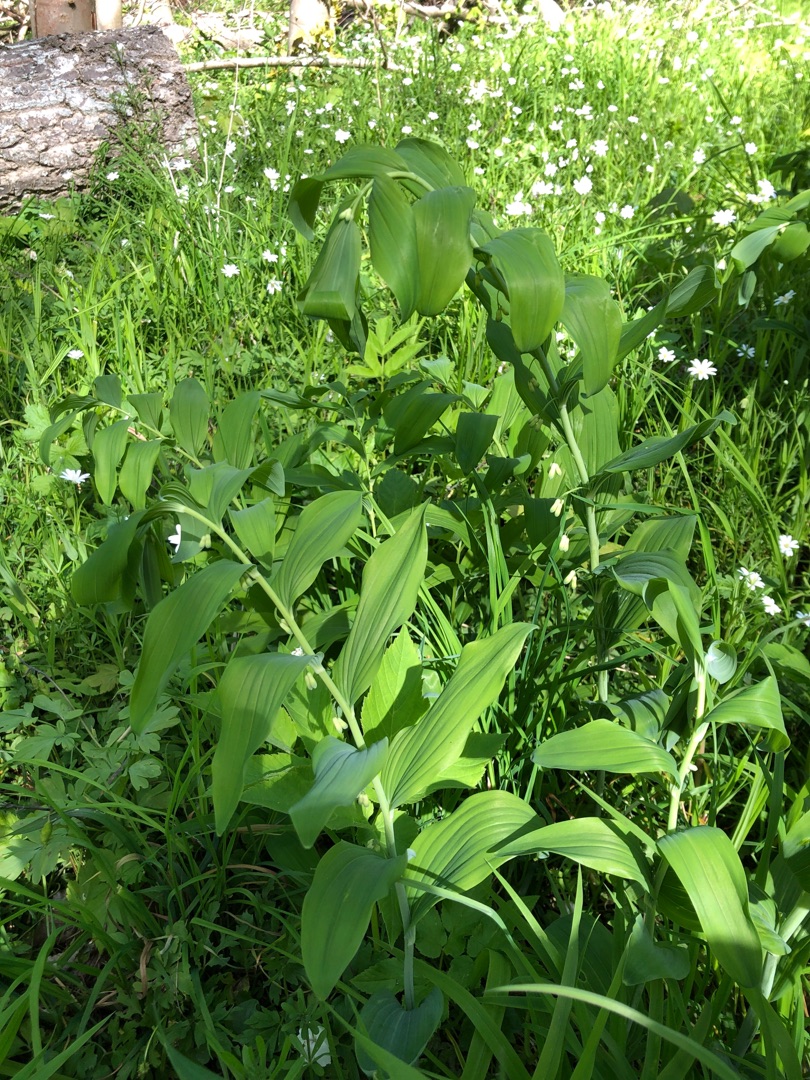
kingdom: Plantae
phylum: Tracheophyta
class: Liliopsida
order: Asparagales
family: Asparagaceae
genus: Polygonatum
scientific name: Polygonatum multiflorum
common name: Stor konval
